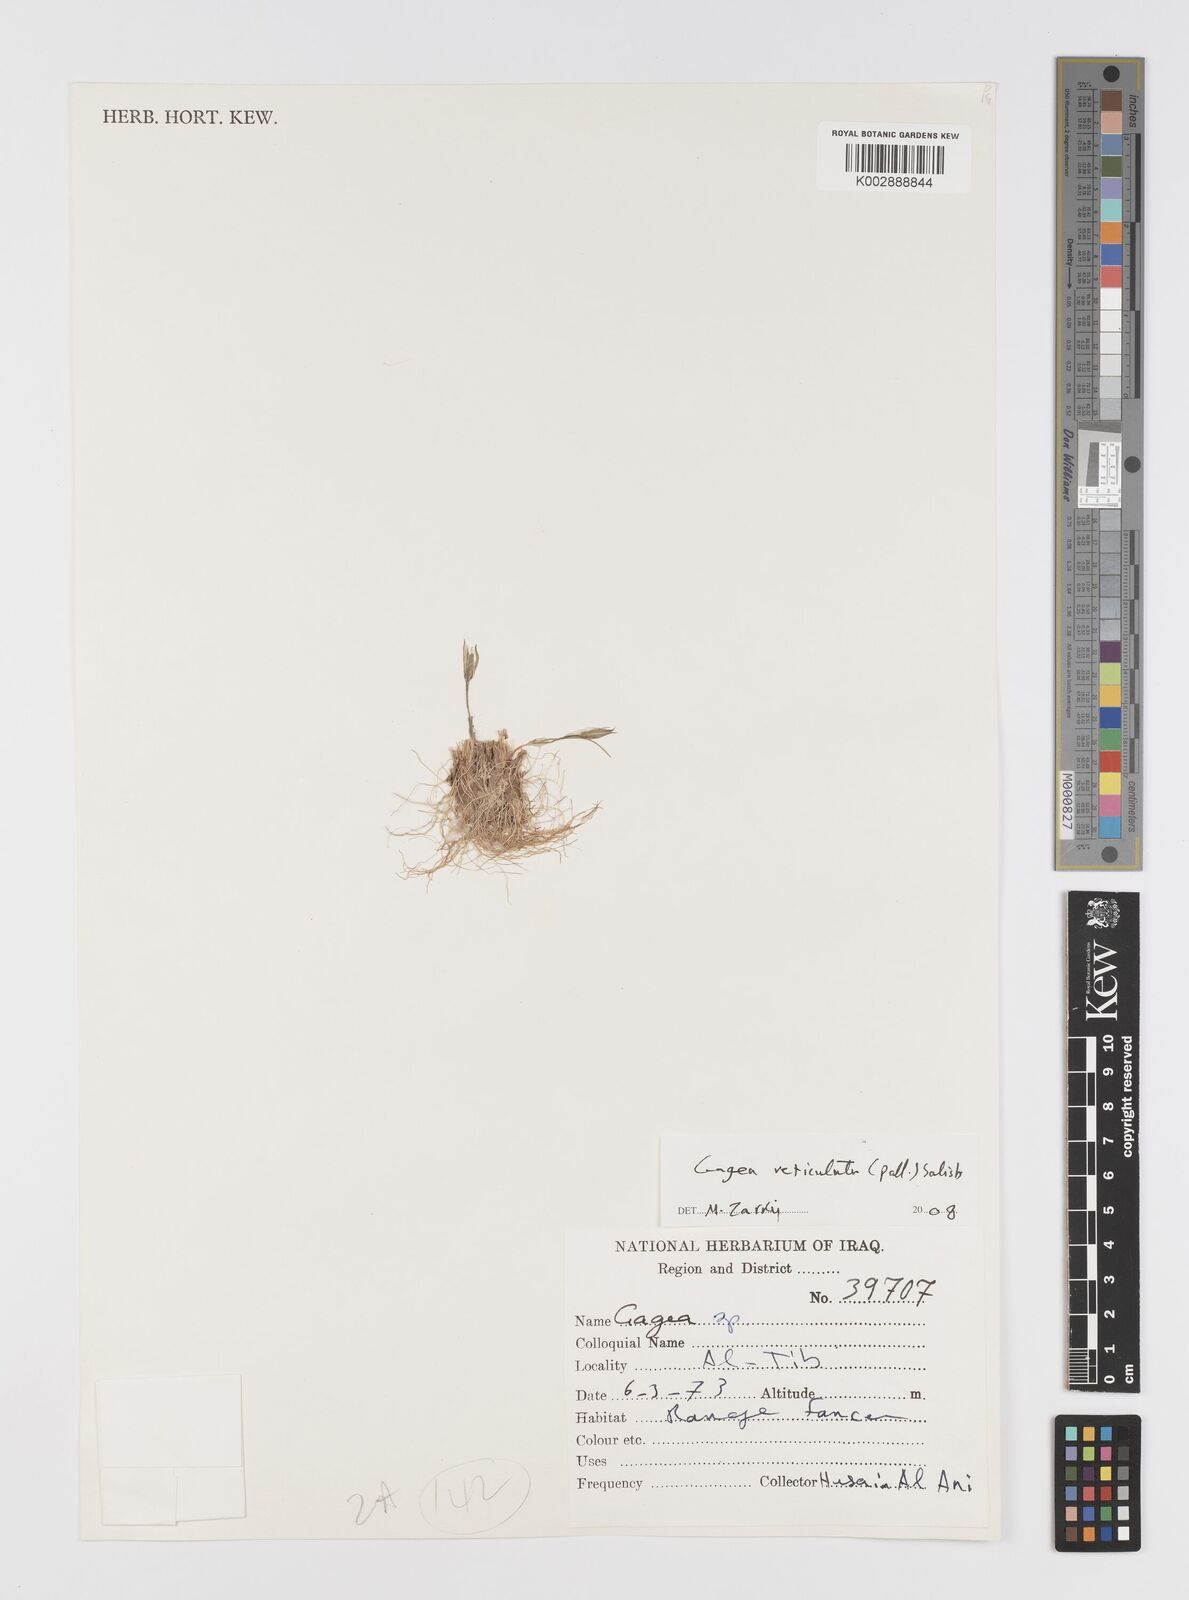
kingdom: Plantae
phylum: Tracheophyta
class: Liliopsida
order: Liliales
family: Liliaceae
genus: Gagea
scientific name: Gagea
